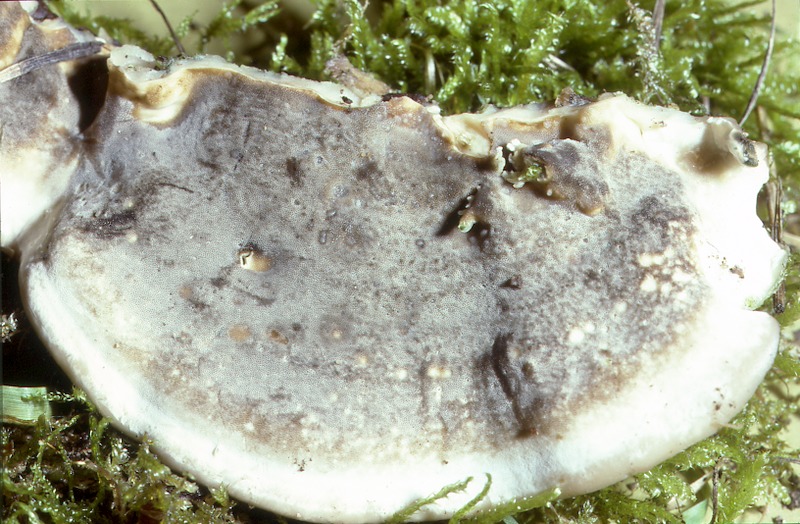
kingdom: Fungi
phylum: Basidiomycota
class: Agaricomycetes
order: Polyporales
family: Phanerochaetaceae
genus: Bjerkandera
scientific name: Bjerkandera adusta
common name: Smoky bracket
